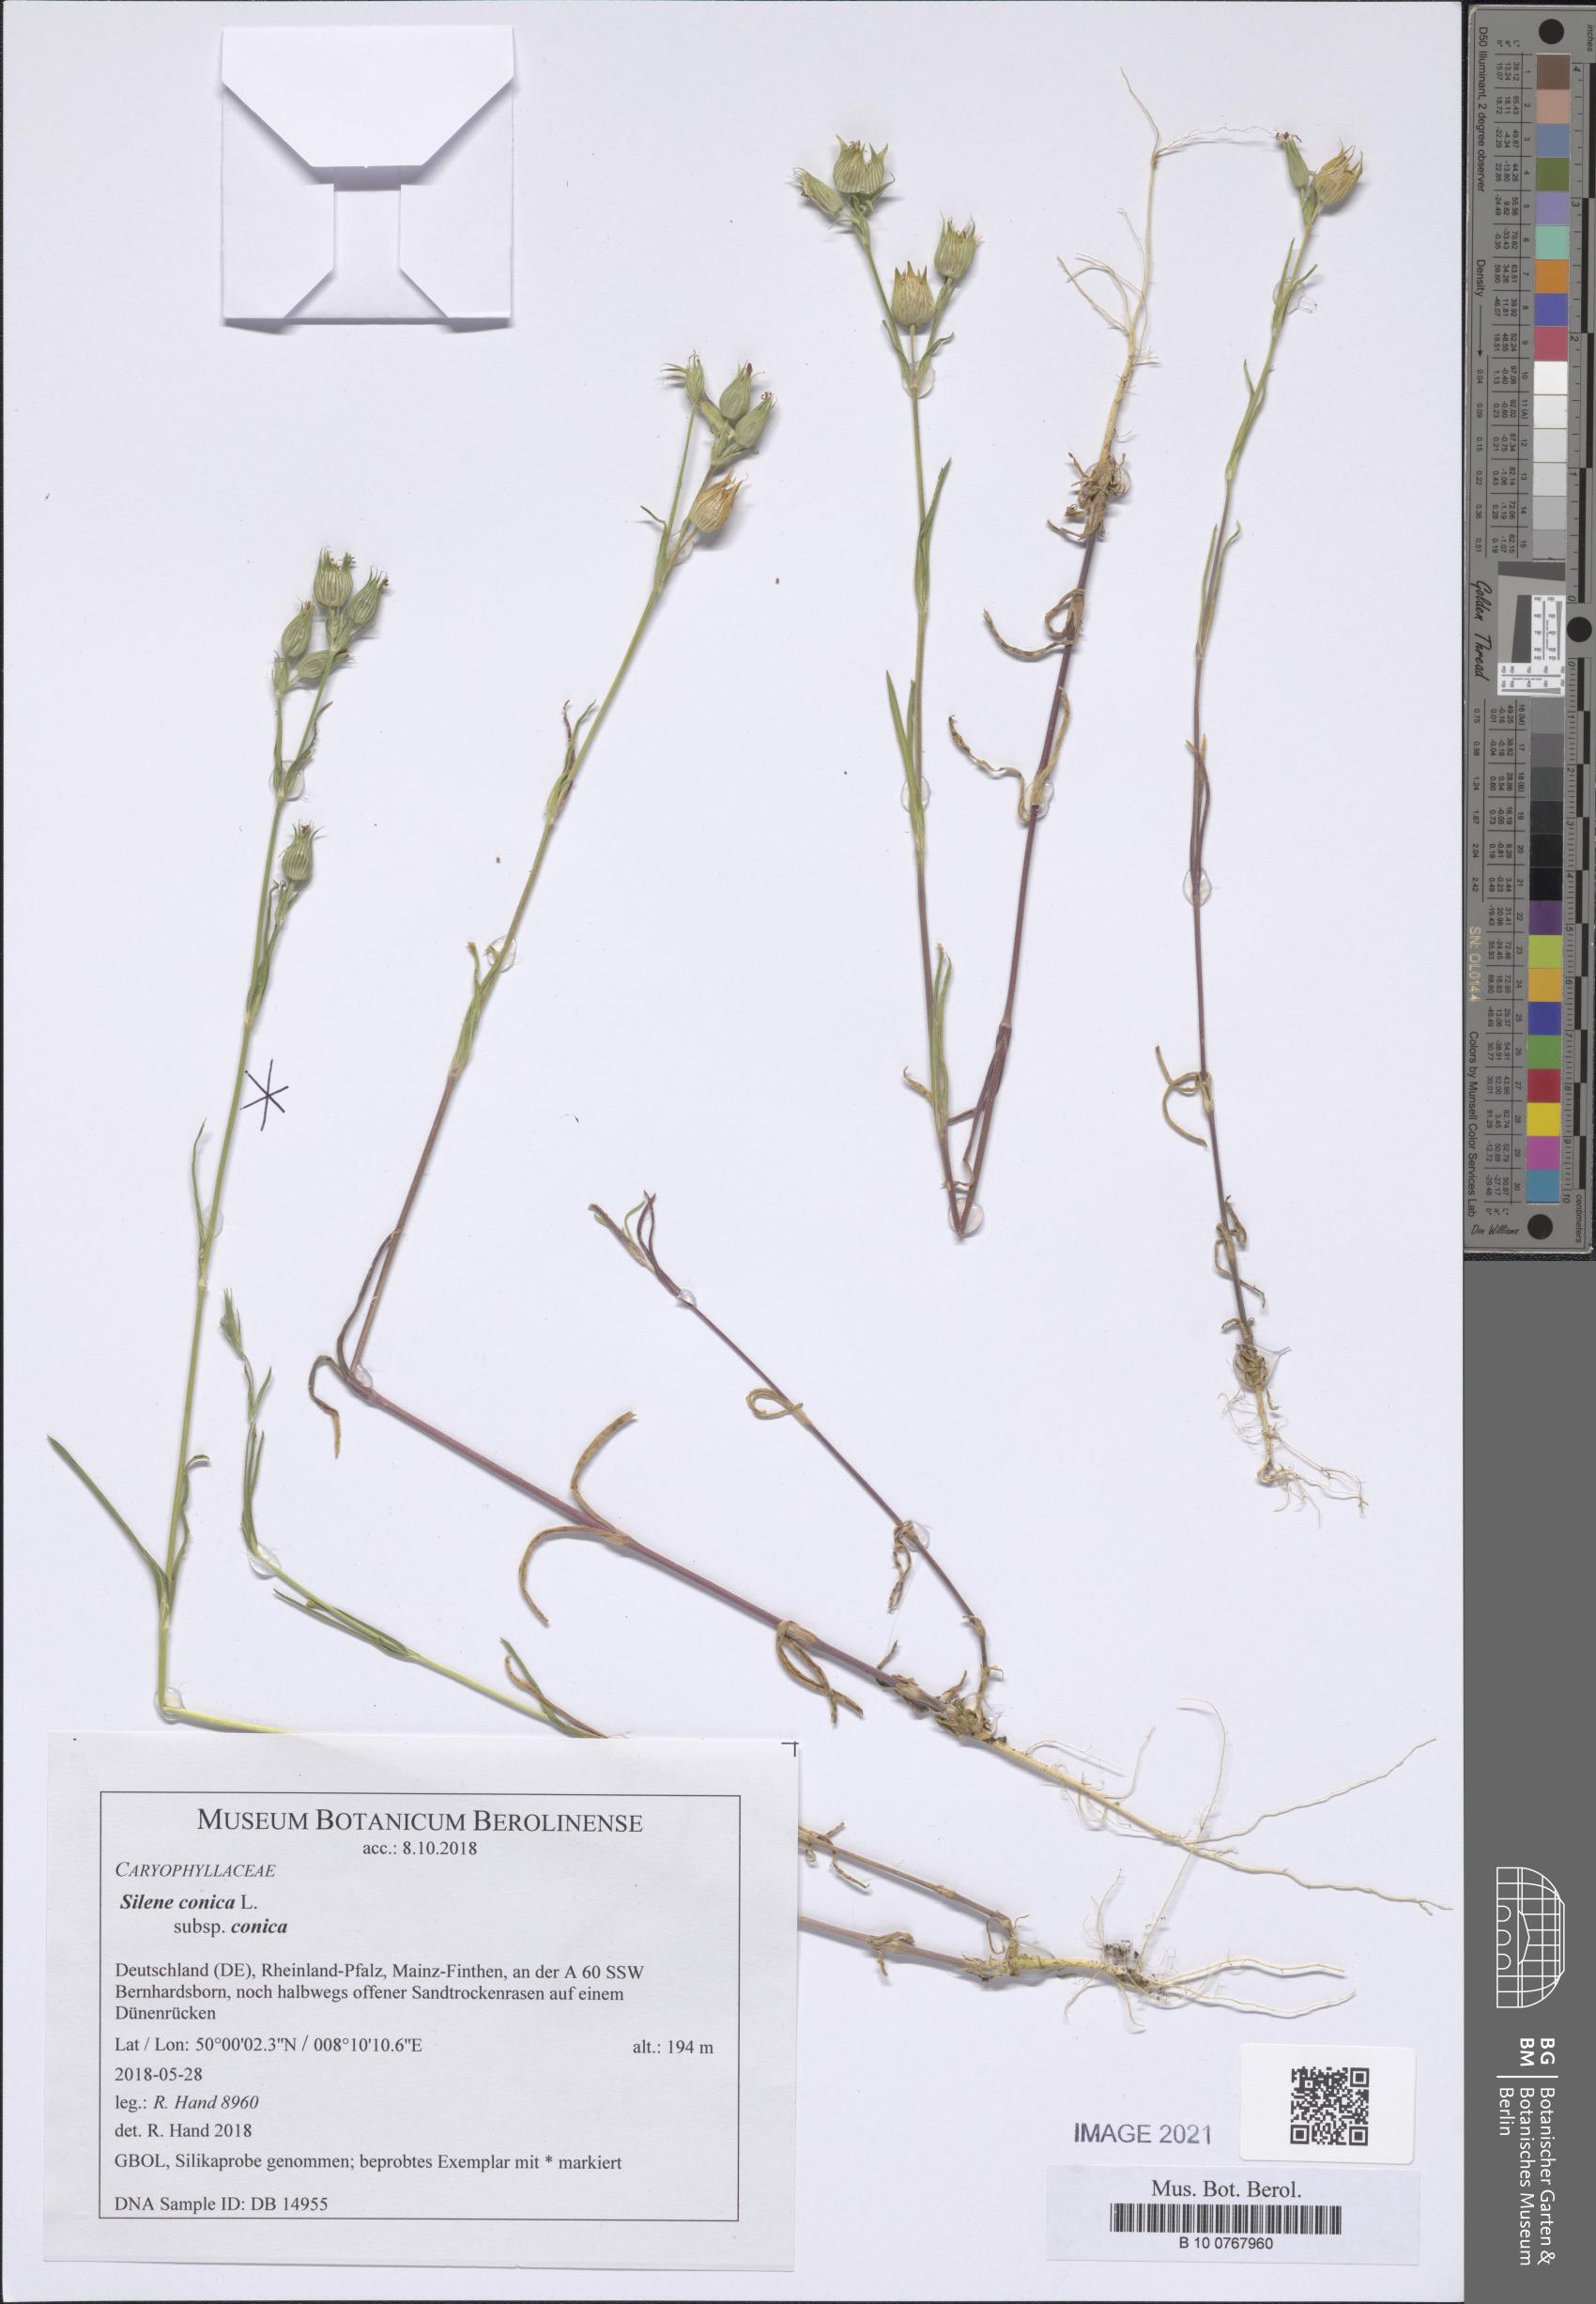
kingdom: Plantae
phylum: Tracheophyta
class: Magnoliopsida
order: Caryophyllales
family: Caryophyllaceae
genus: Silene
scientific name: Silene conica
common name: Sand catchfly
